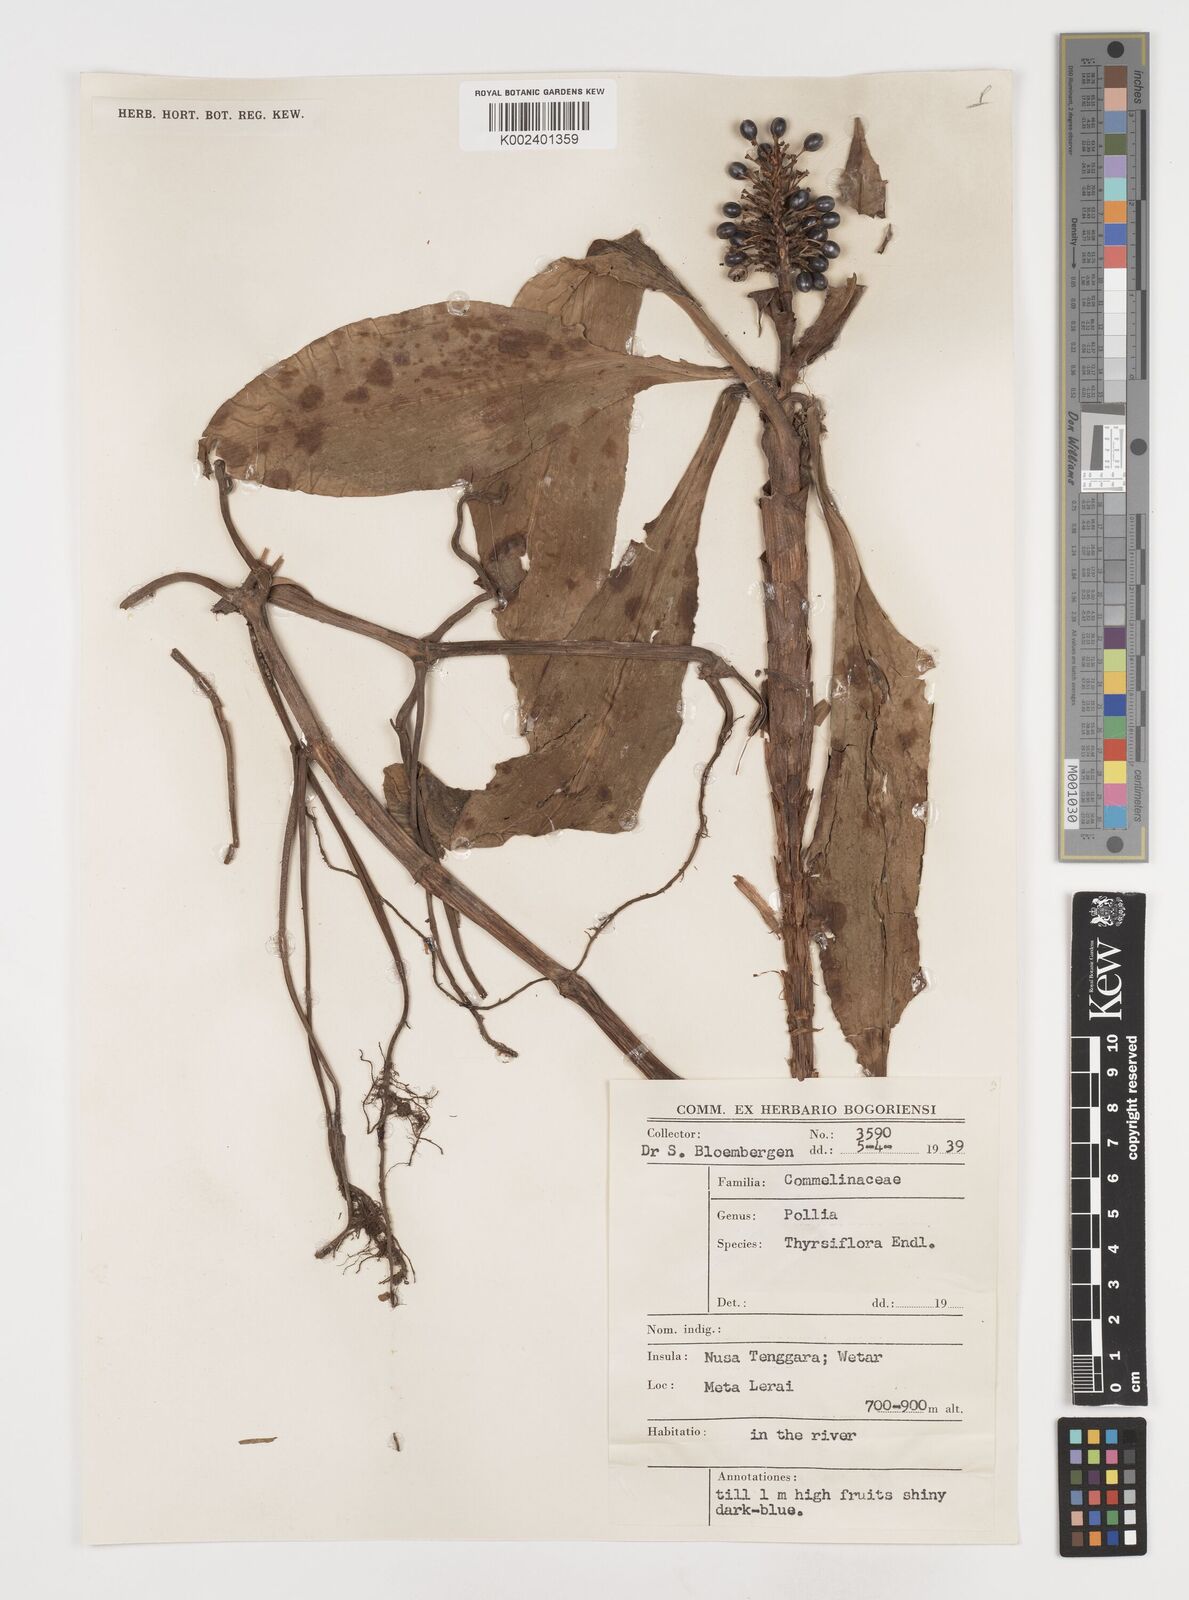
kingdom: Plantae
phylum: Tracheophyta
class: Liliopsida
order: Commelinales
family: Commelinaceae
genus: Pollia
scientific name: Pollia thyrsiflora
